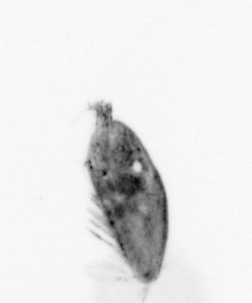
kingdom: Animalia
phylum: Arthropoda
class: Maxillopoda
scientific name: Maxillopoda
